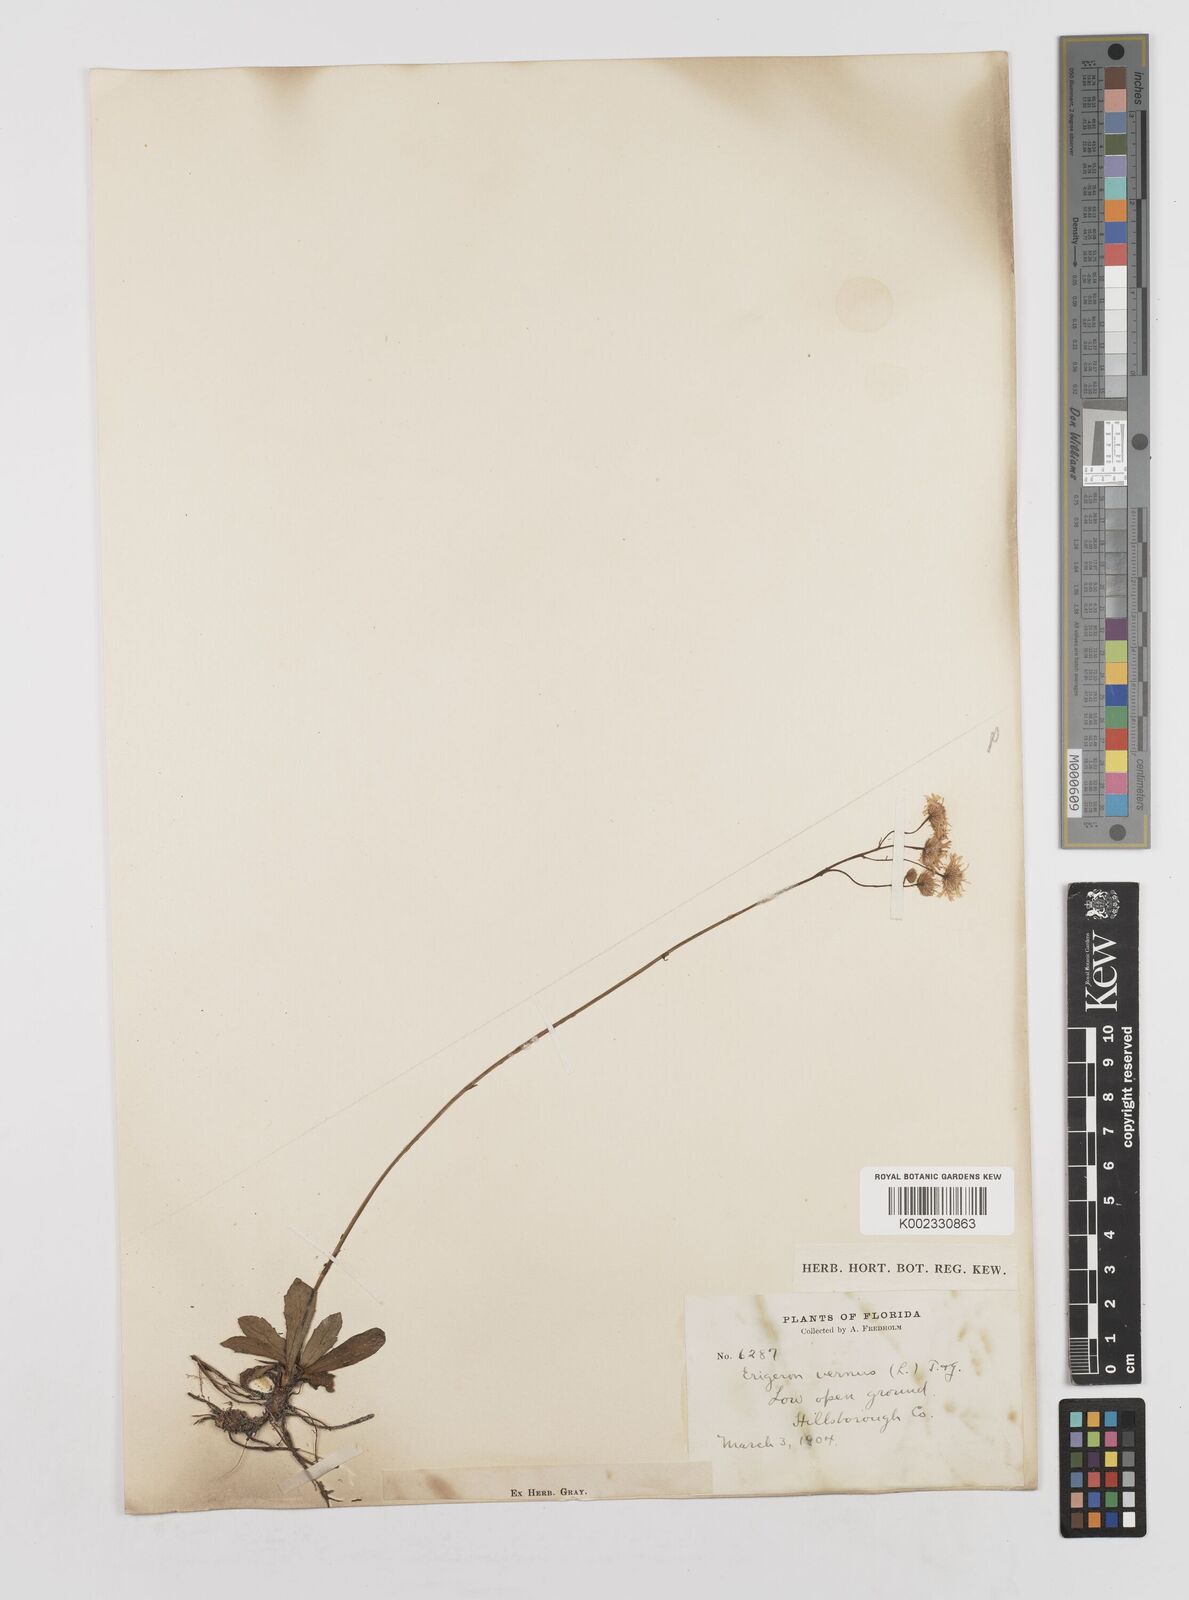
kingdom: Plantae
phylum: Tracheophyta
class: Magnoliopsida
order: Asterales
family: Asteraceae
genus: Erigeron
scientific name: Erigeron vernus
